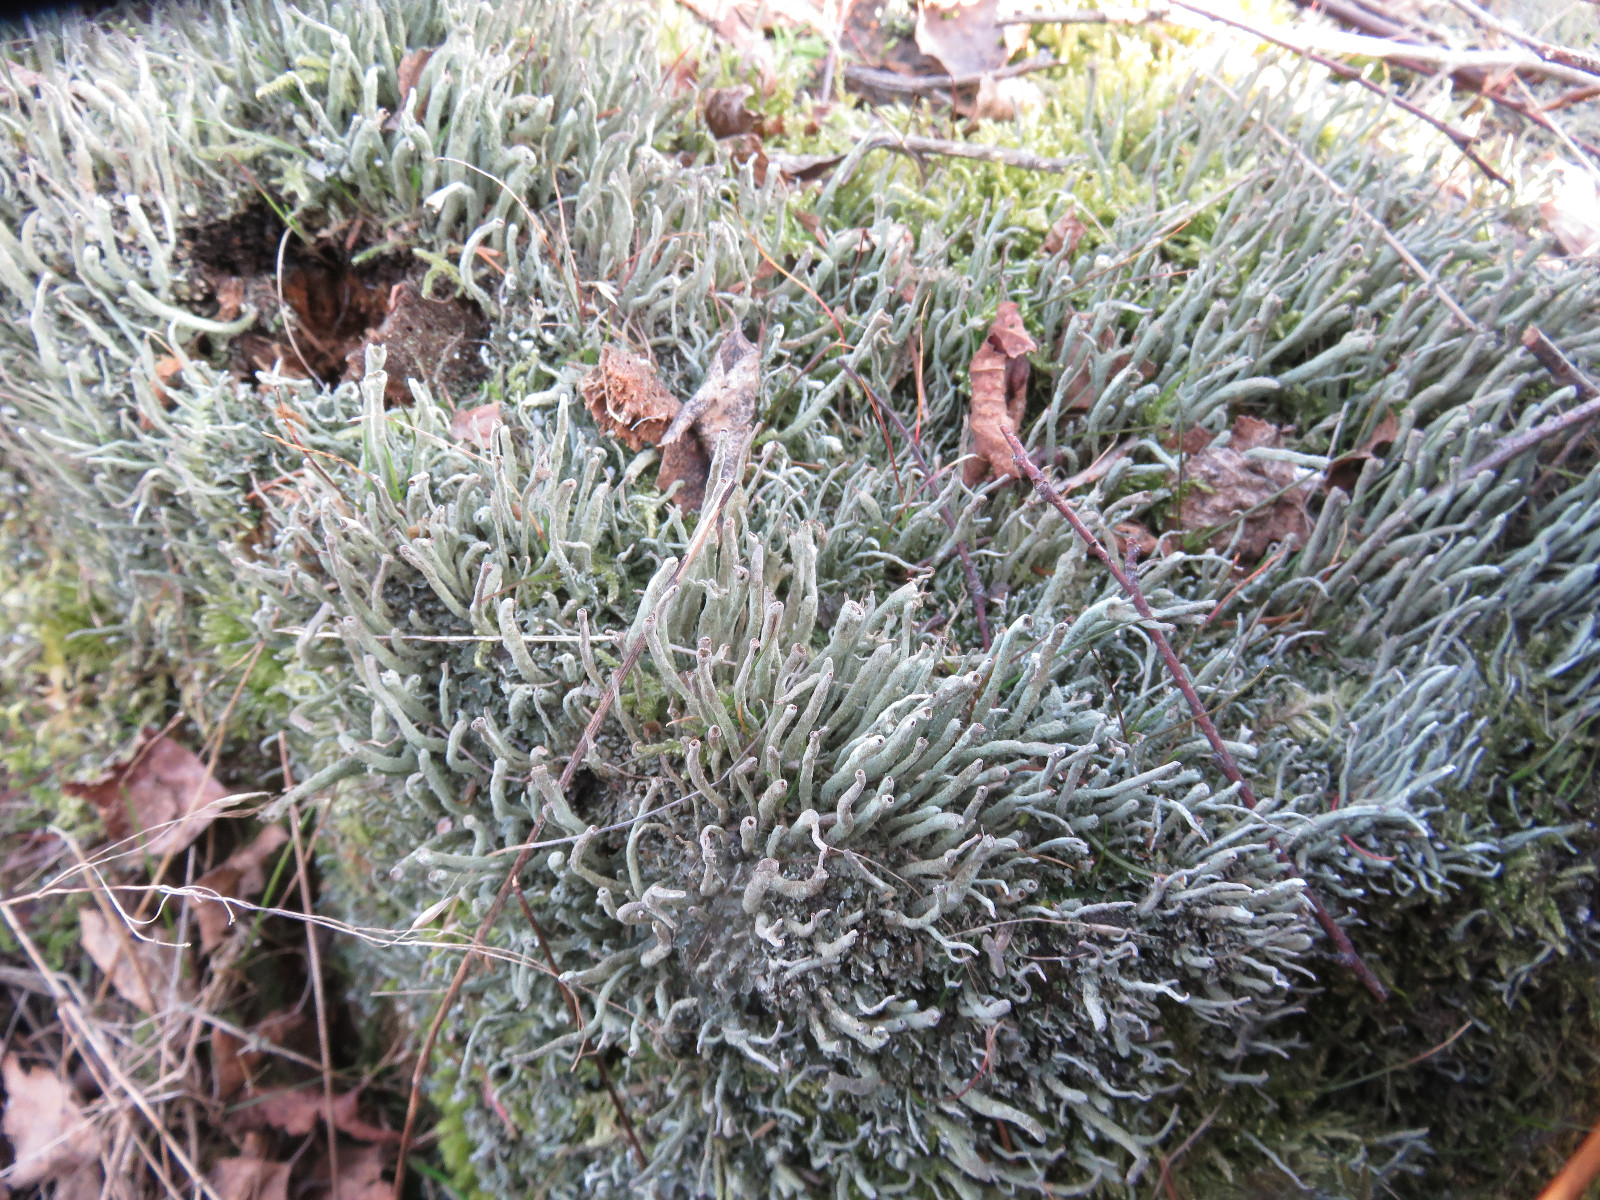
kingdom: Fungi
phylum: Ascomycota
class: Lecanoromycetes
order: Lecanorales
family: Cladoniaceae
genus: Cladonia
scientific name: Cladonia ochrochlora
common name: stød-bægerlav
